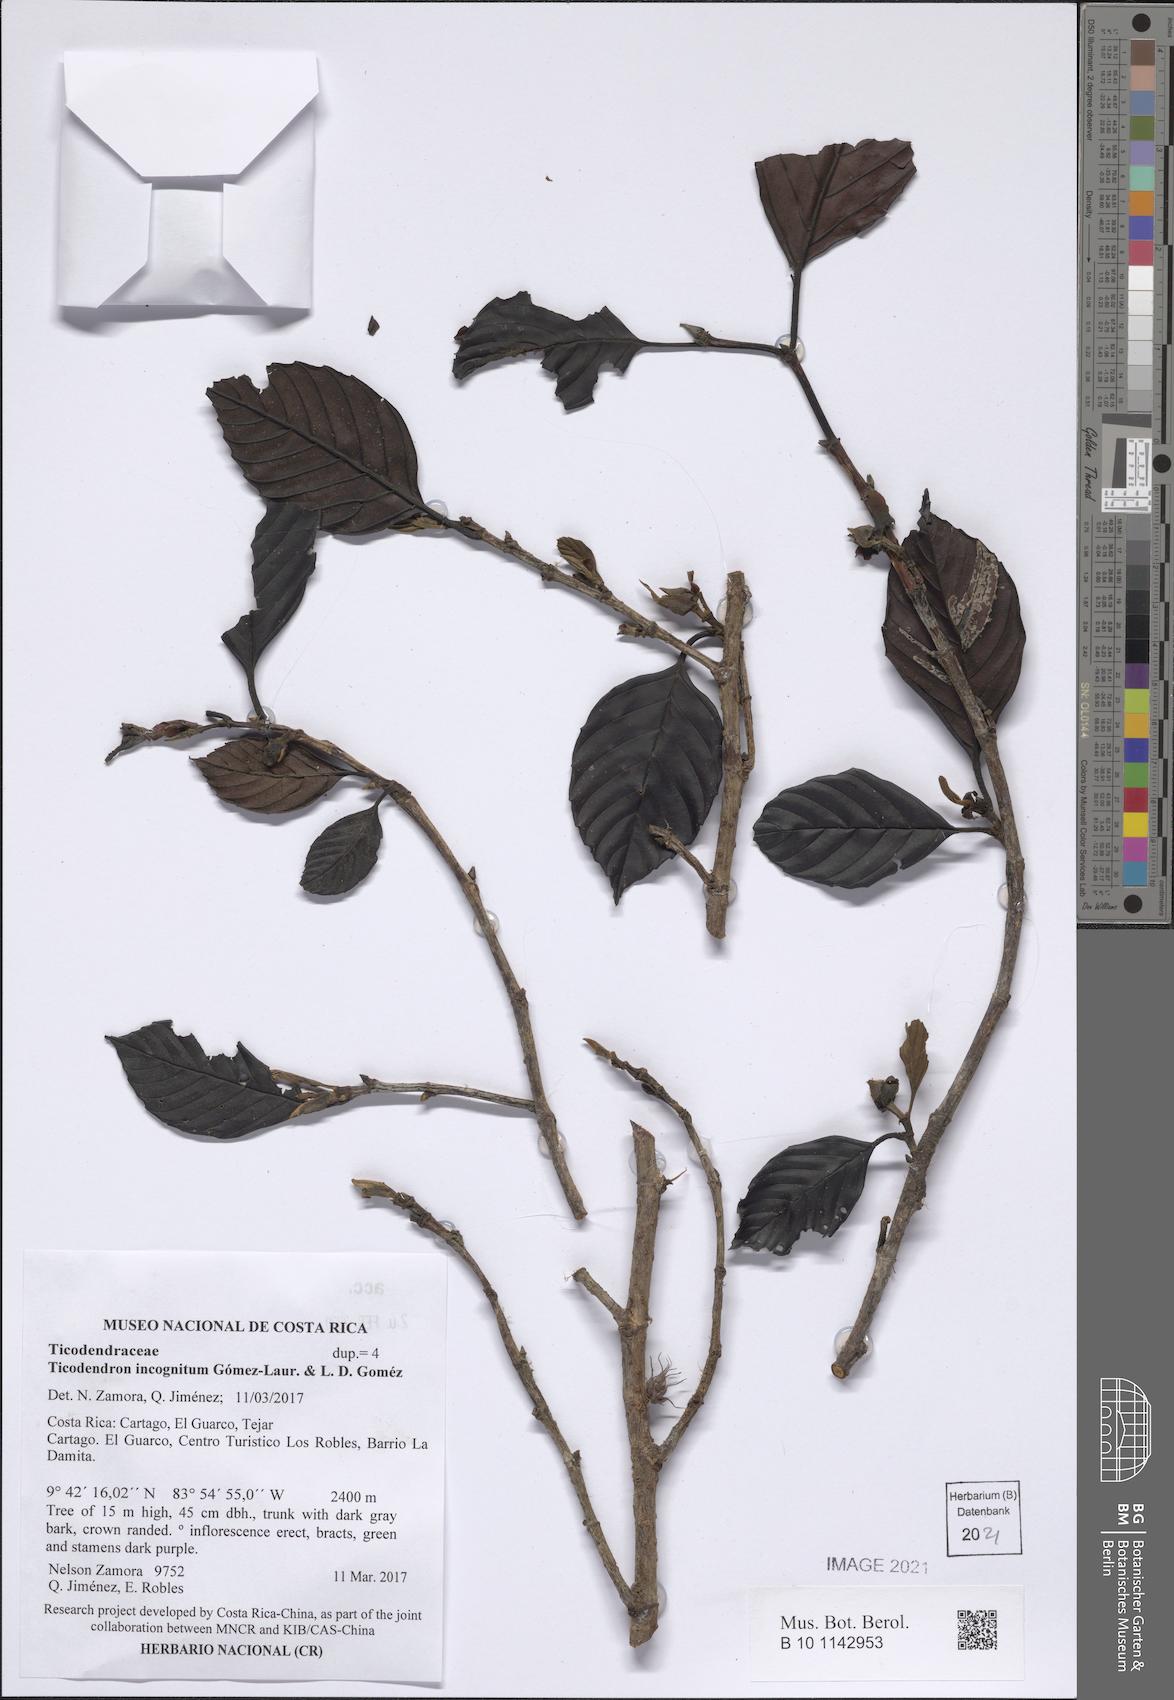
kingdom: Plantae
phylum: Tracheophyta
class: Magnoliopsida
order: Fagales
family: Ticodendraceae
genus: Ticodendron
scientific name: Ticodendron incognitum
